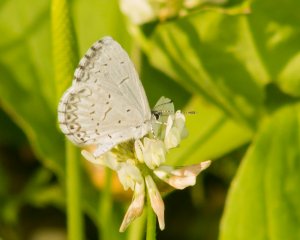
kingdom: Animalia
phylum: Arthropoda
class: Insecta
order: Lepidoptera
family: Lycaenidae
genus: Cyaniris
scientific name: Cyaniris neglecta
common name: Summer Azure
